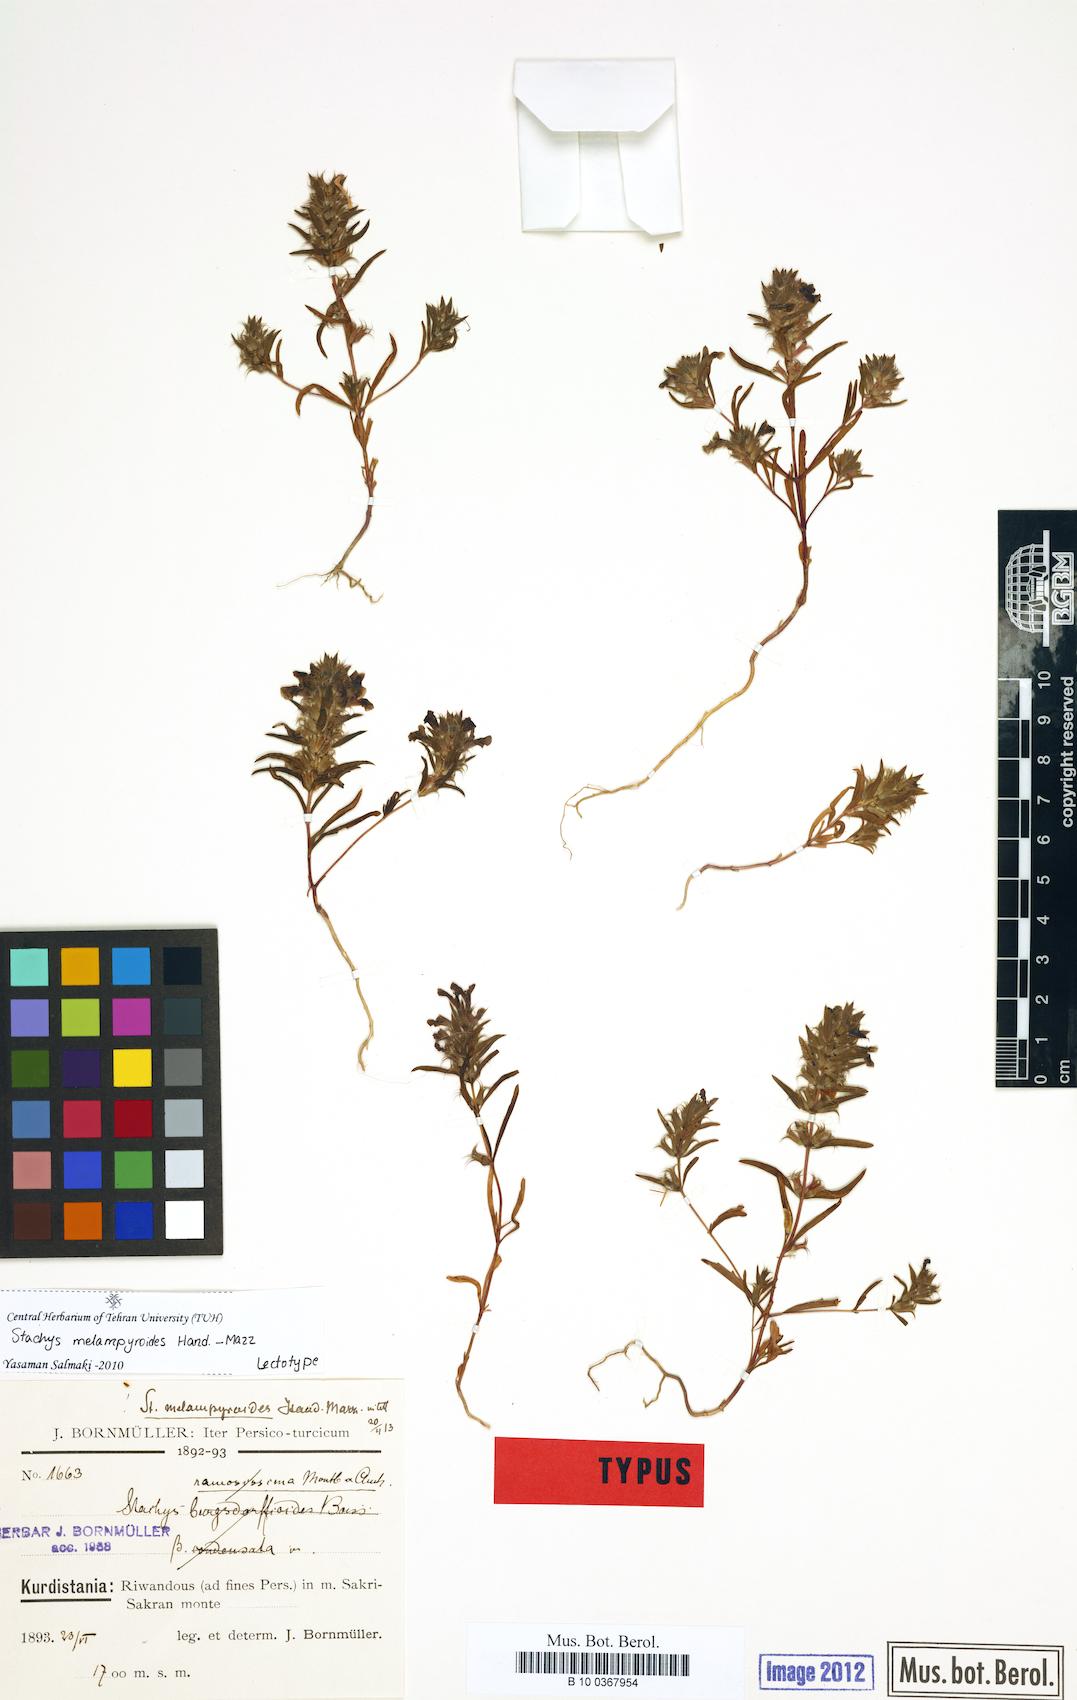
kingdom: Plantae
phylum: Tracheophyta
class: Magnoliopsida
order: Lamiales
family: Lamiaceae
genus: Stachys
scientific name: Stachys melampyroides
